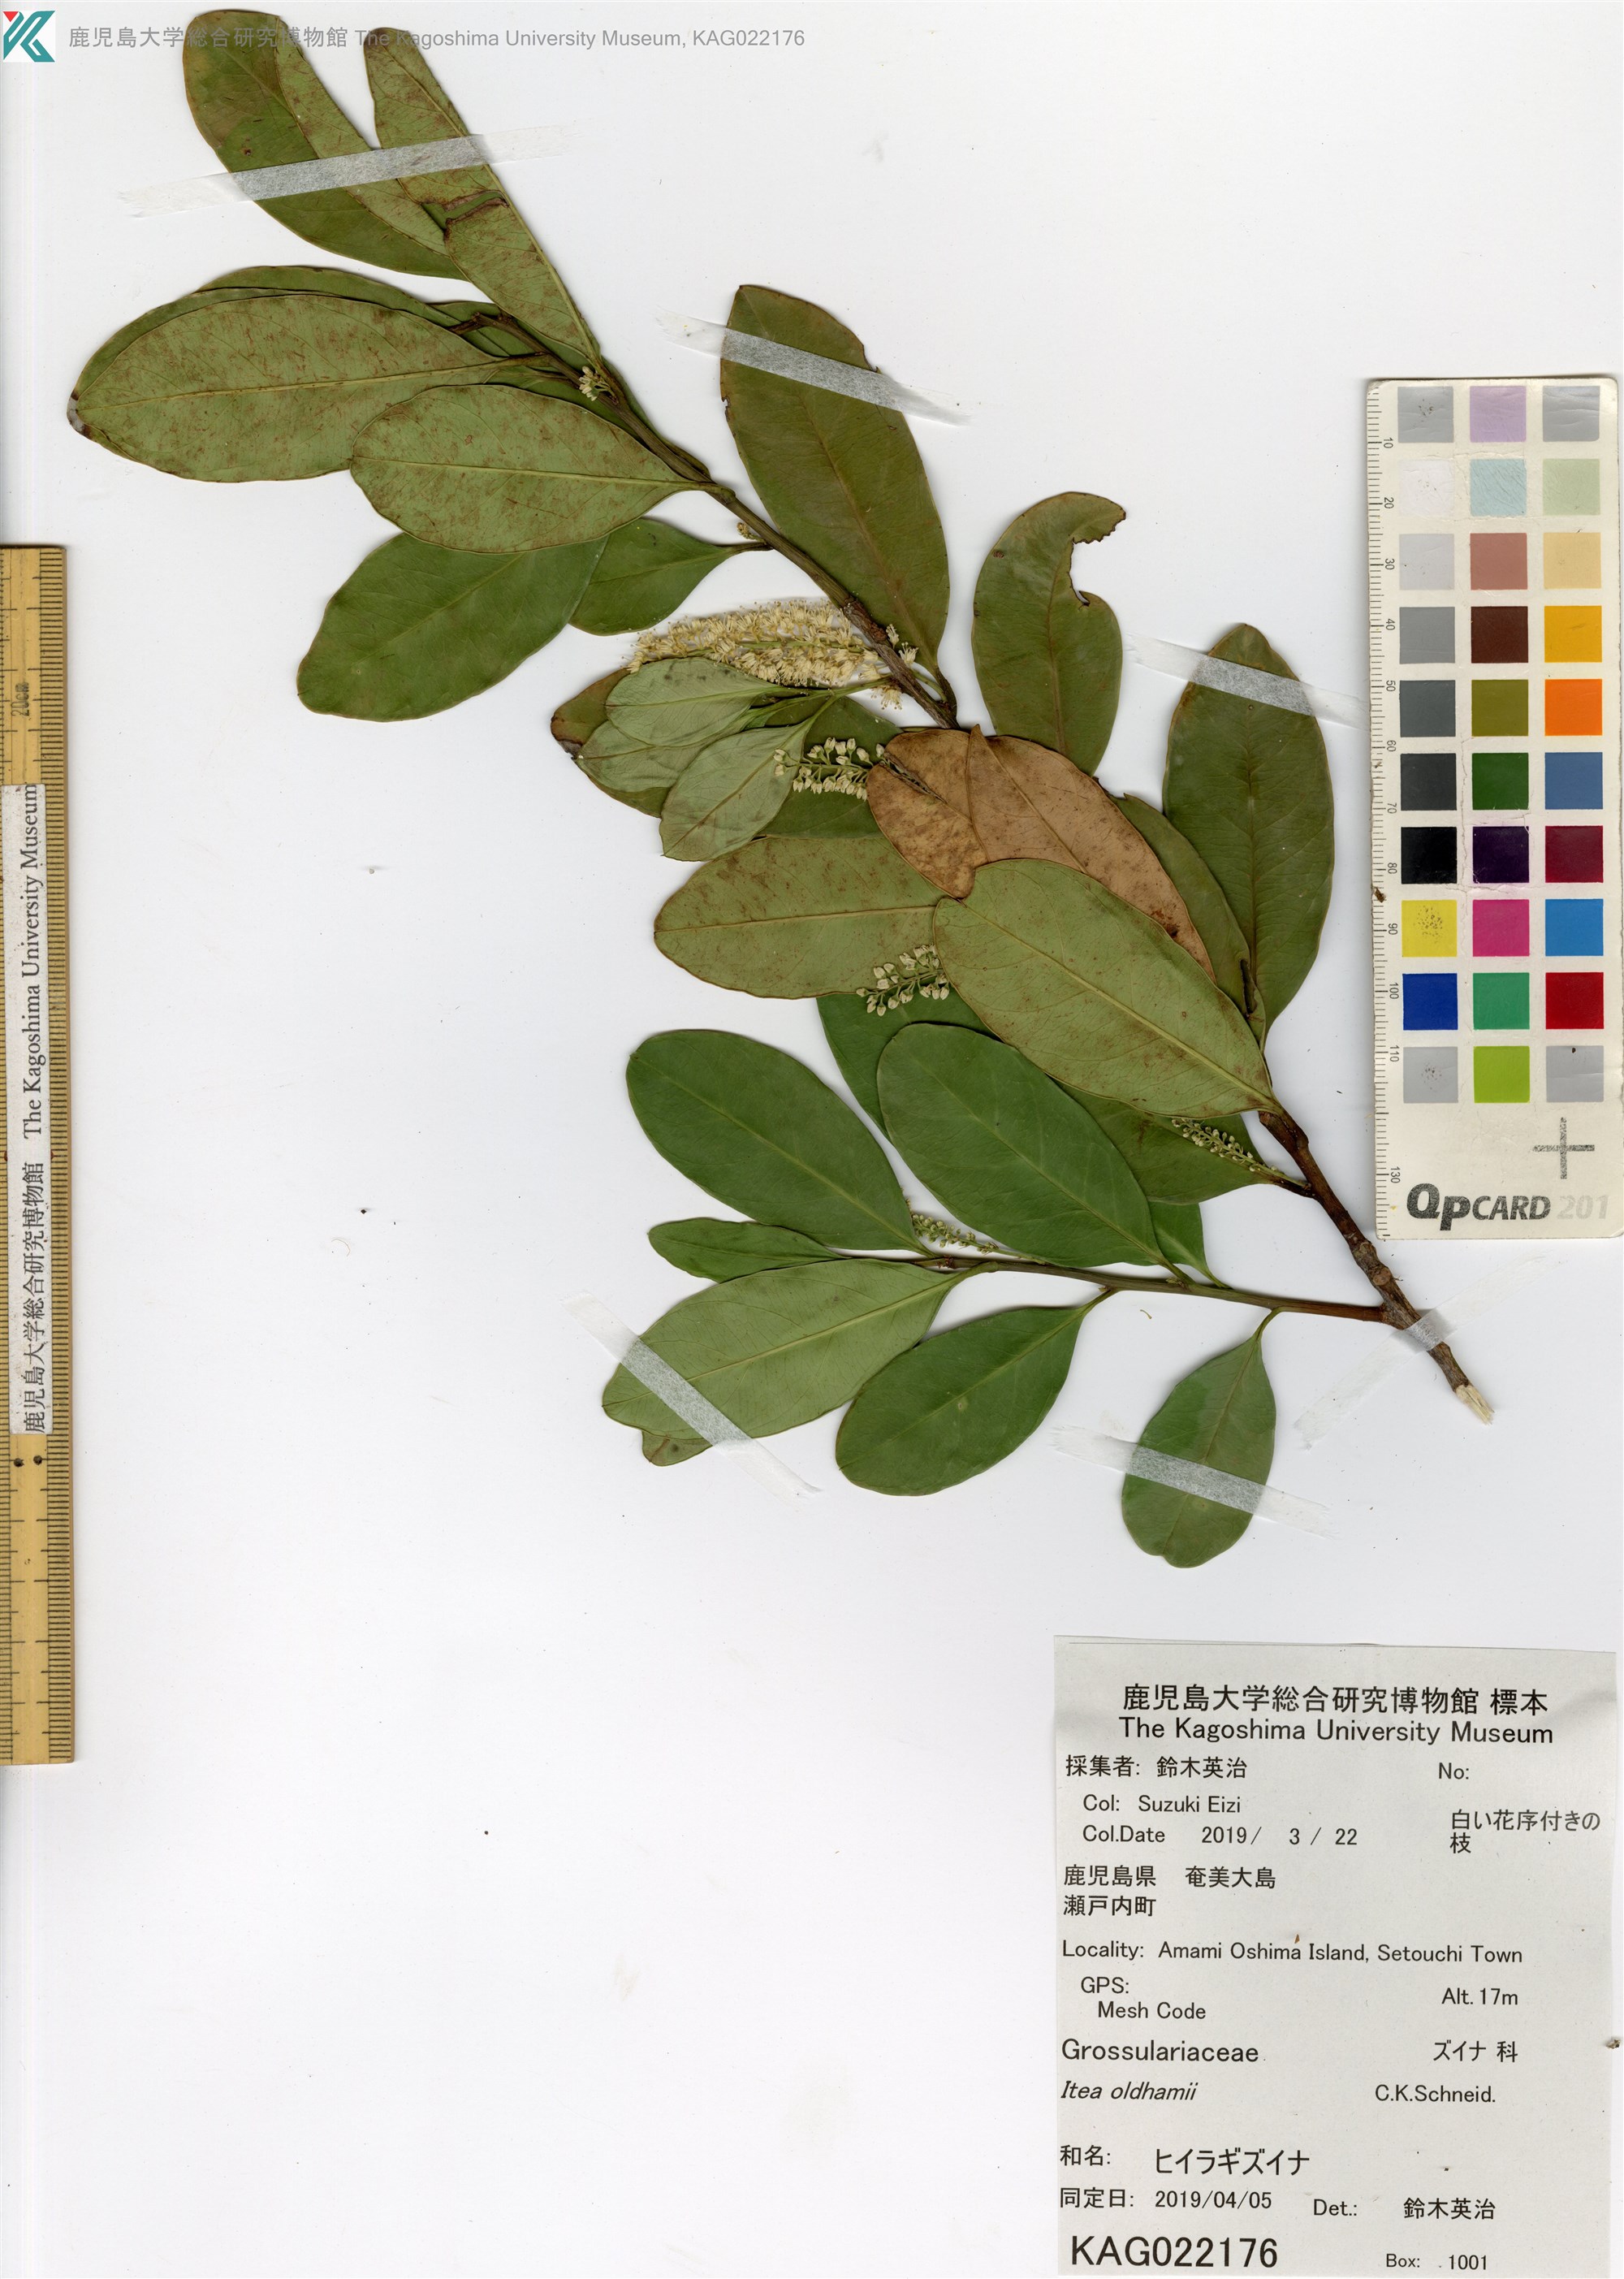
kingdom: Plantae
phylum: Tracheophyta
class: Magnoliopsida
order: Saxifragales
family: Iteaceae
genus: Itea
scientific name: Itea oldhamii
